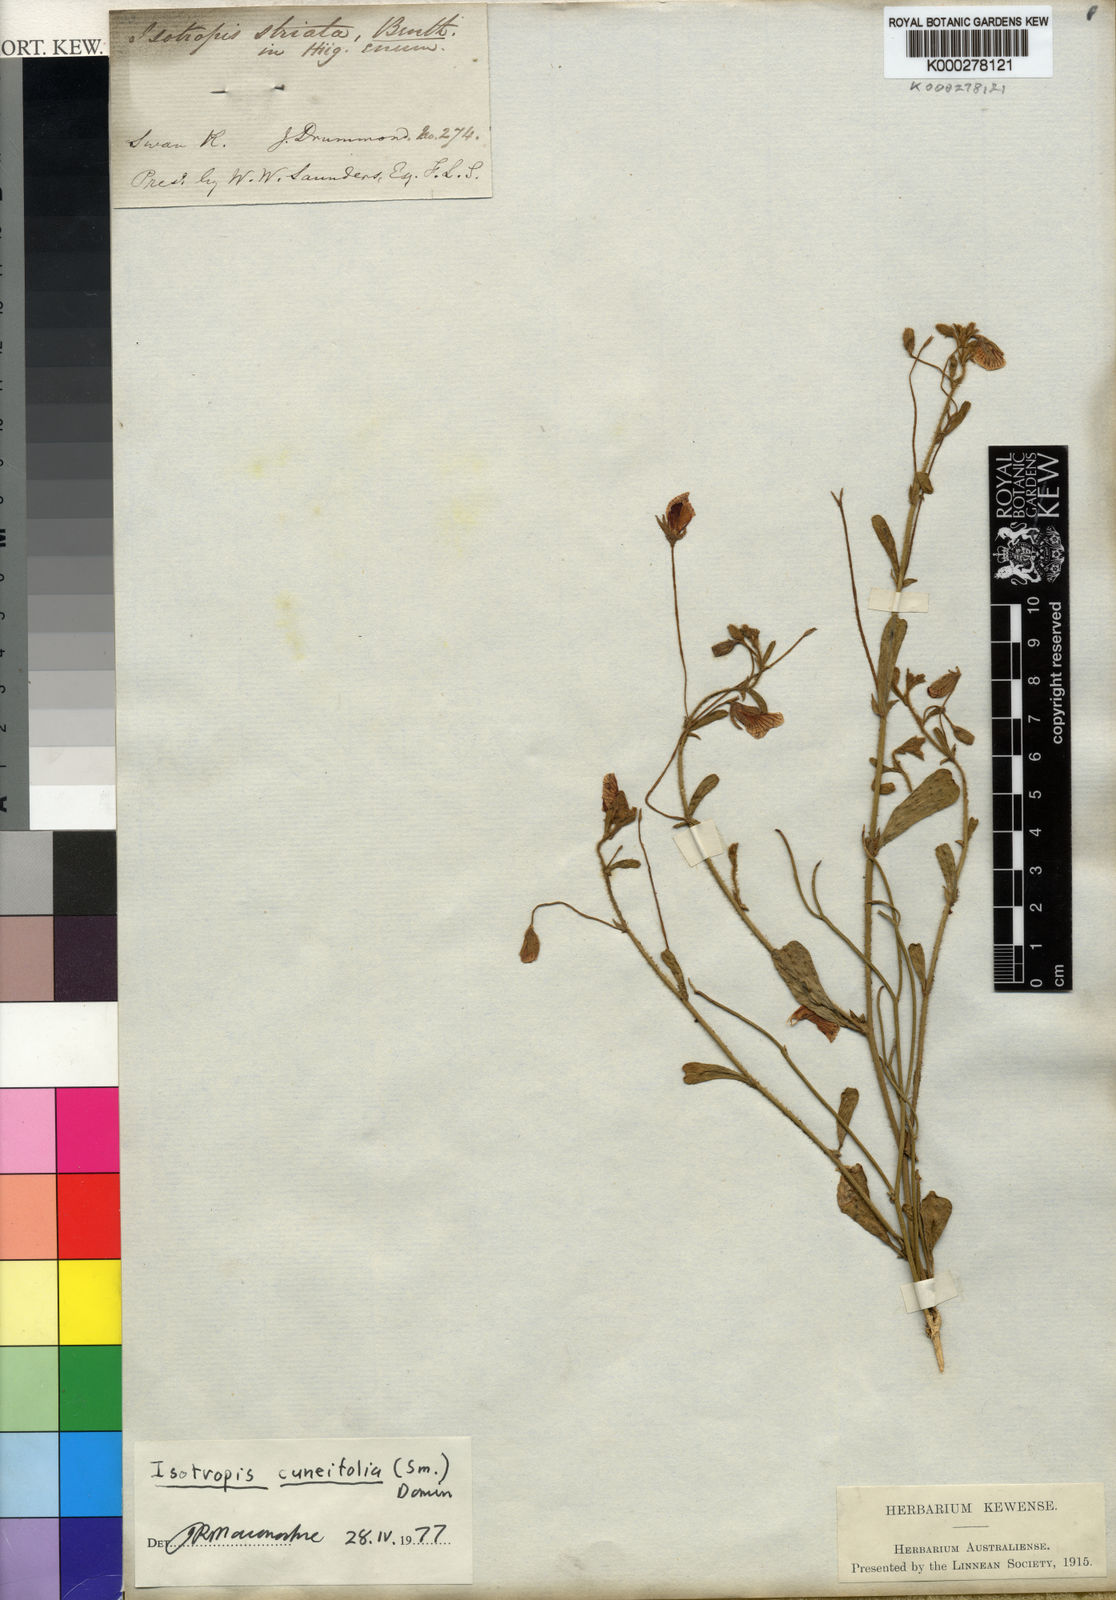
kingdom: Plantae
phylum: Tracheophyta
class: Magnoliopsida
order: Fabales
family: Fabaceae
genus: Isotropis
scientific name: Isotropis cuneifolia
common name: Granny bonnets
